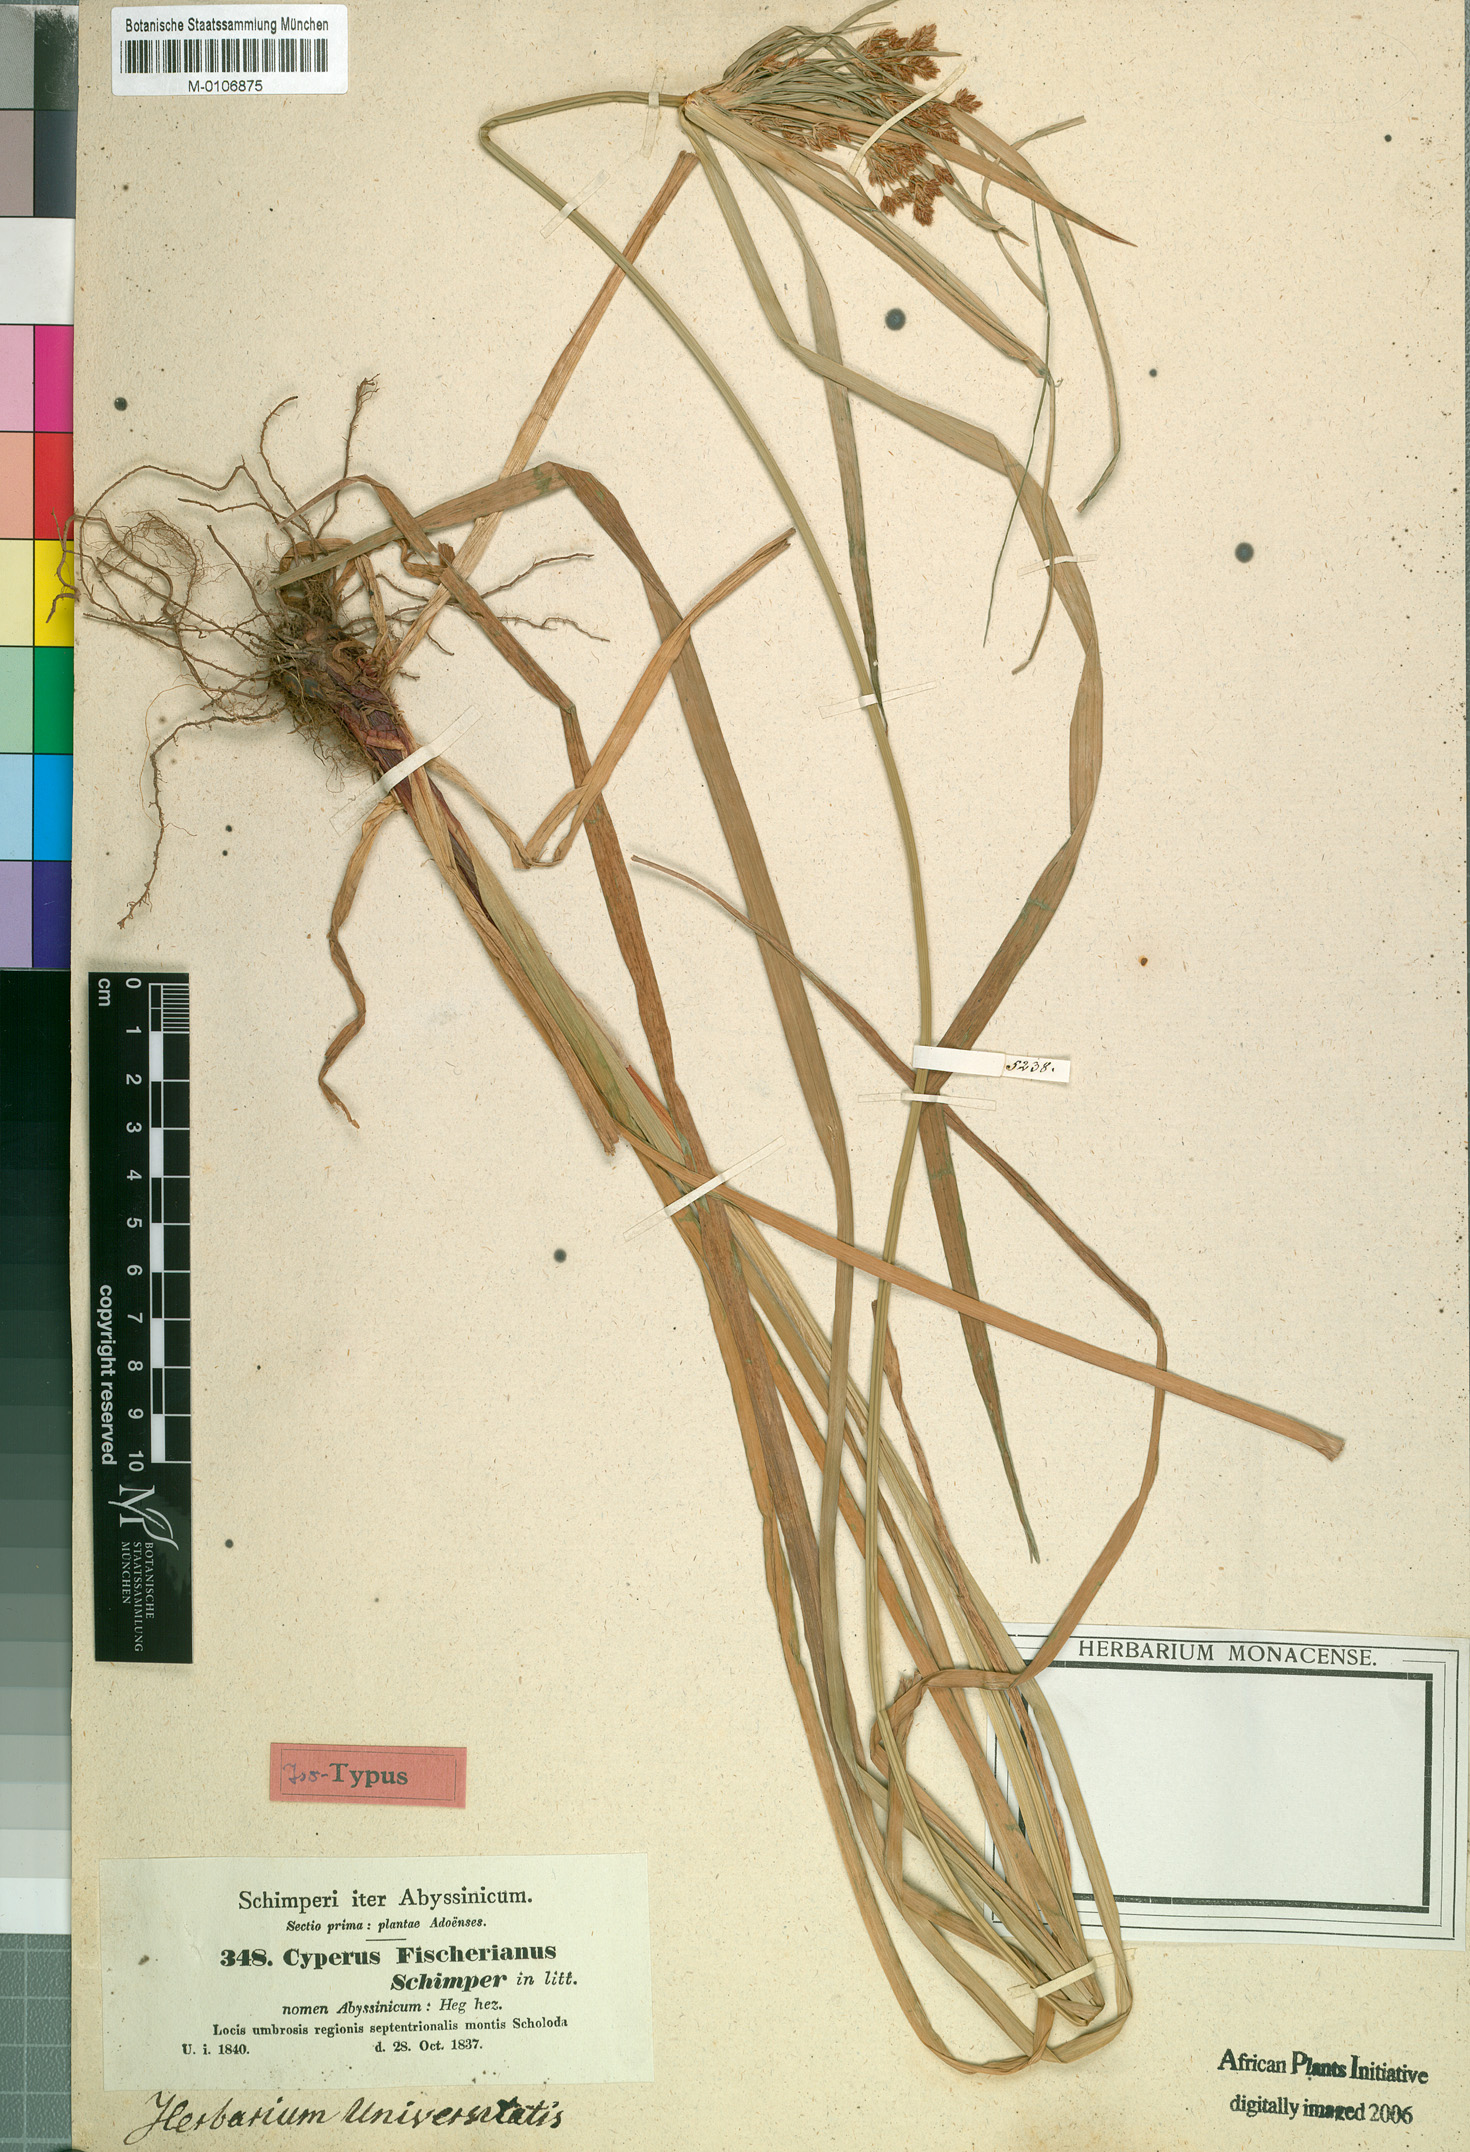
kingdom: Plantae
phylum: Tracheophyta
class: Liliopsida
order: Poales
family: Cyperaceae
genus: Cyperus
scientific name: Cyperus fischerianus
